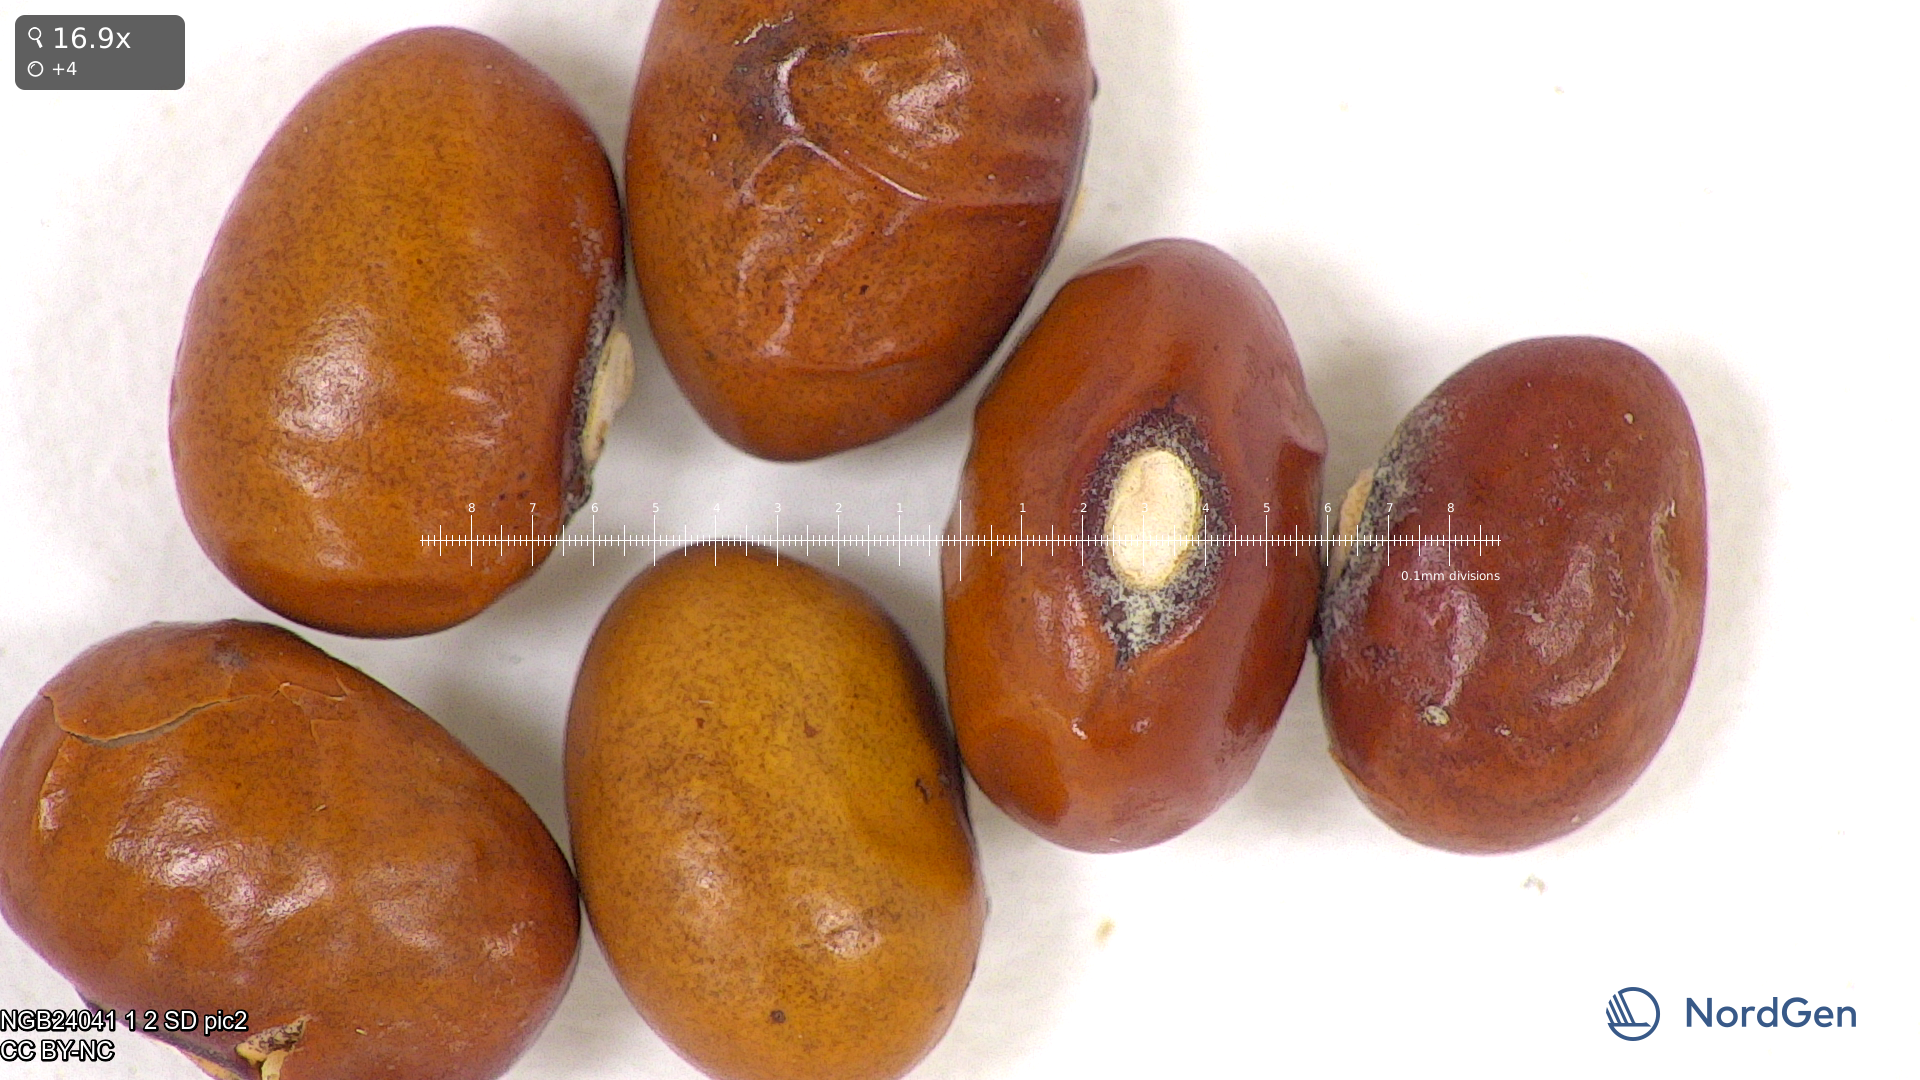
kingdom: Plantae
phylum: Tracheophyta
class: Magnoliopsida
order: Fabales
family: Fabaceae
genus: Phaseolus
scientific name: Phaseolus vulgaris
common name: Bean
